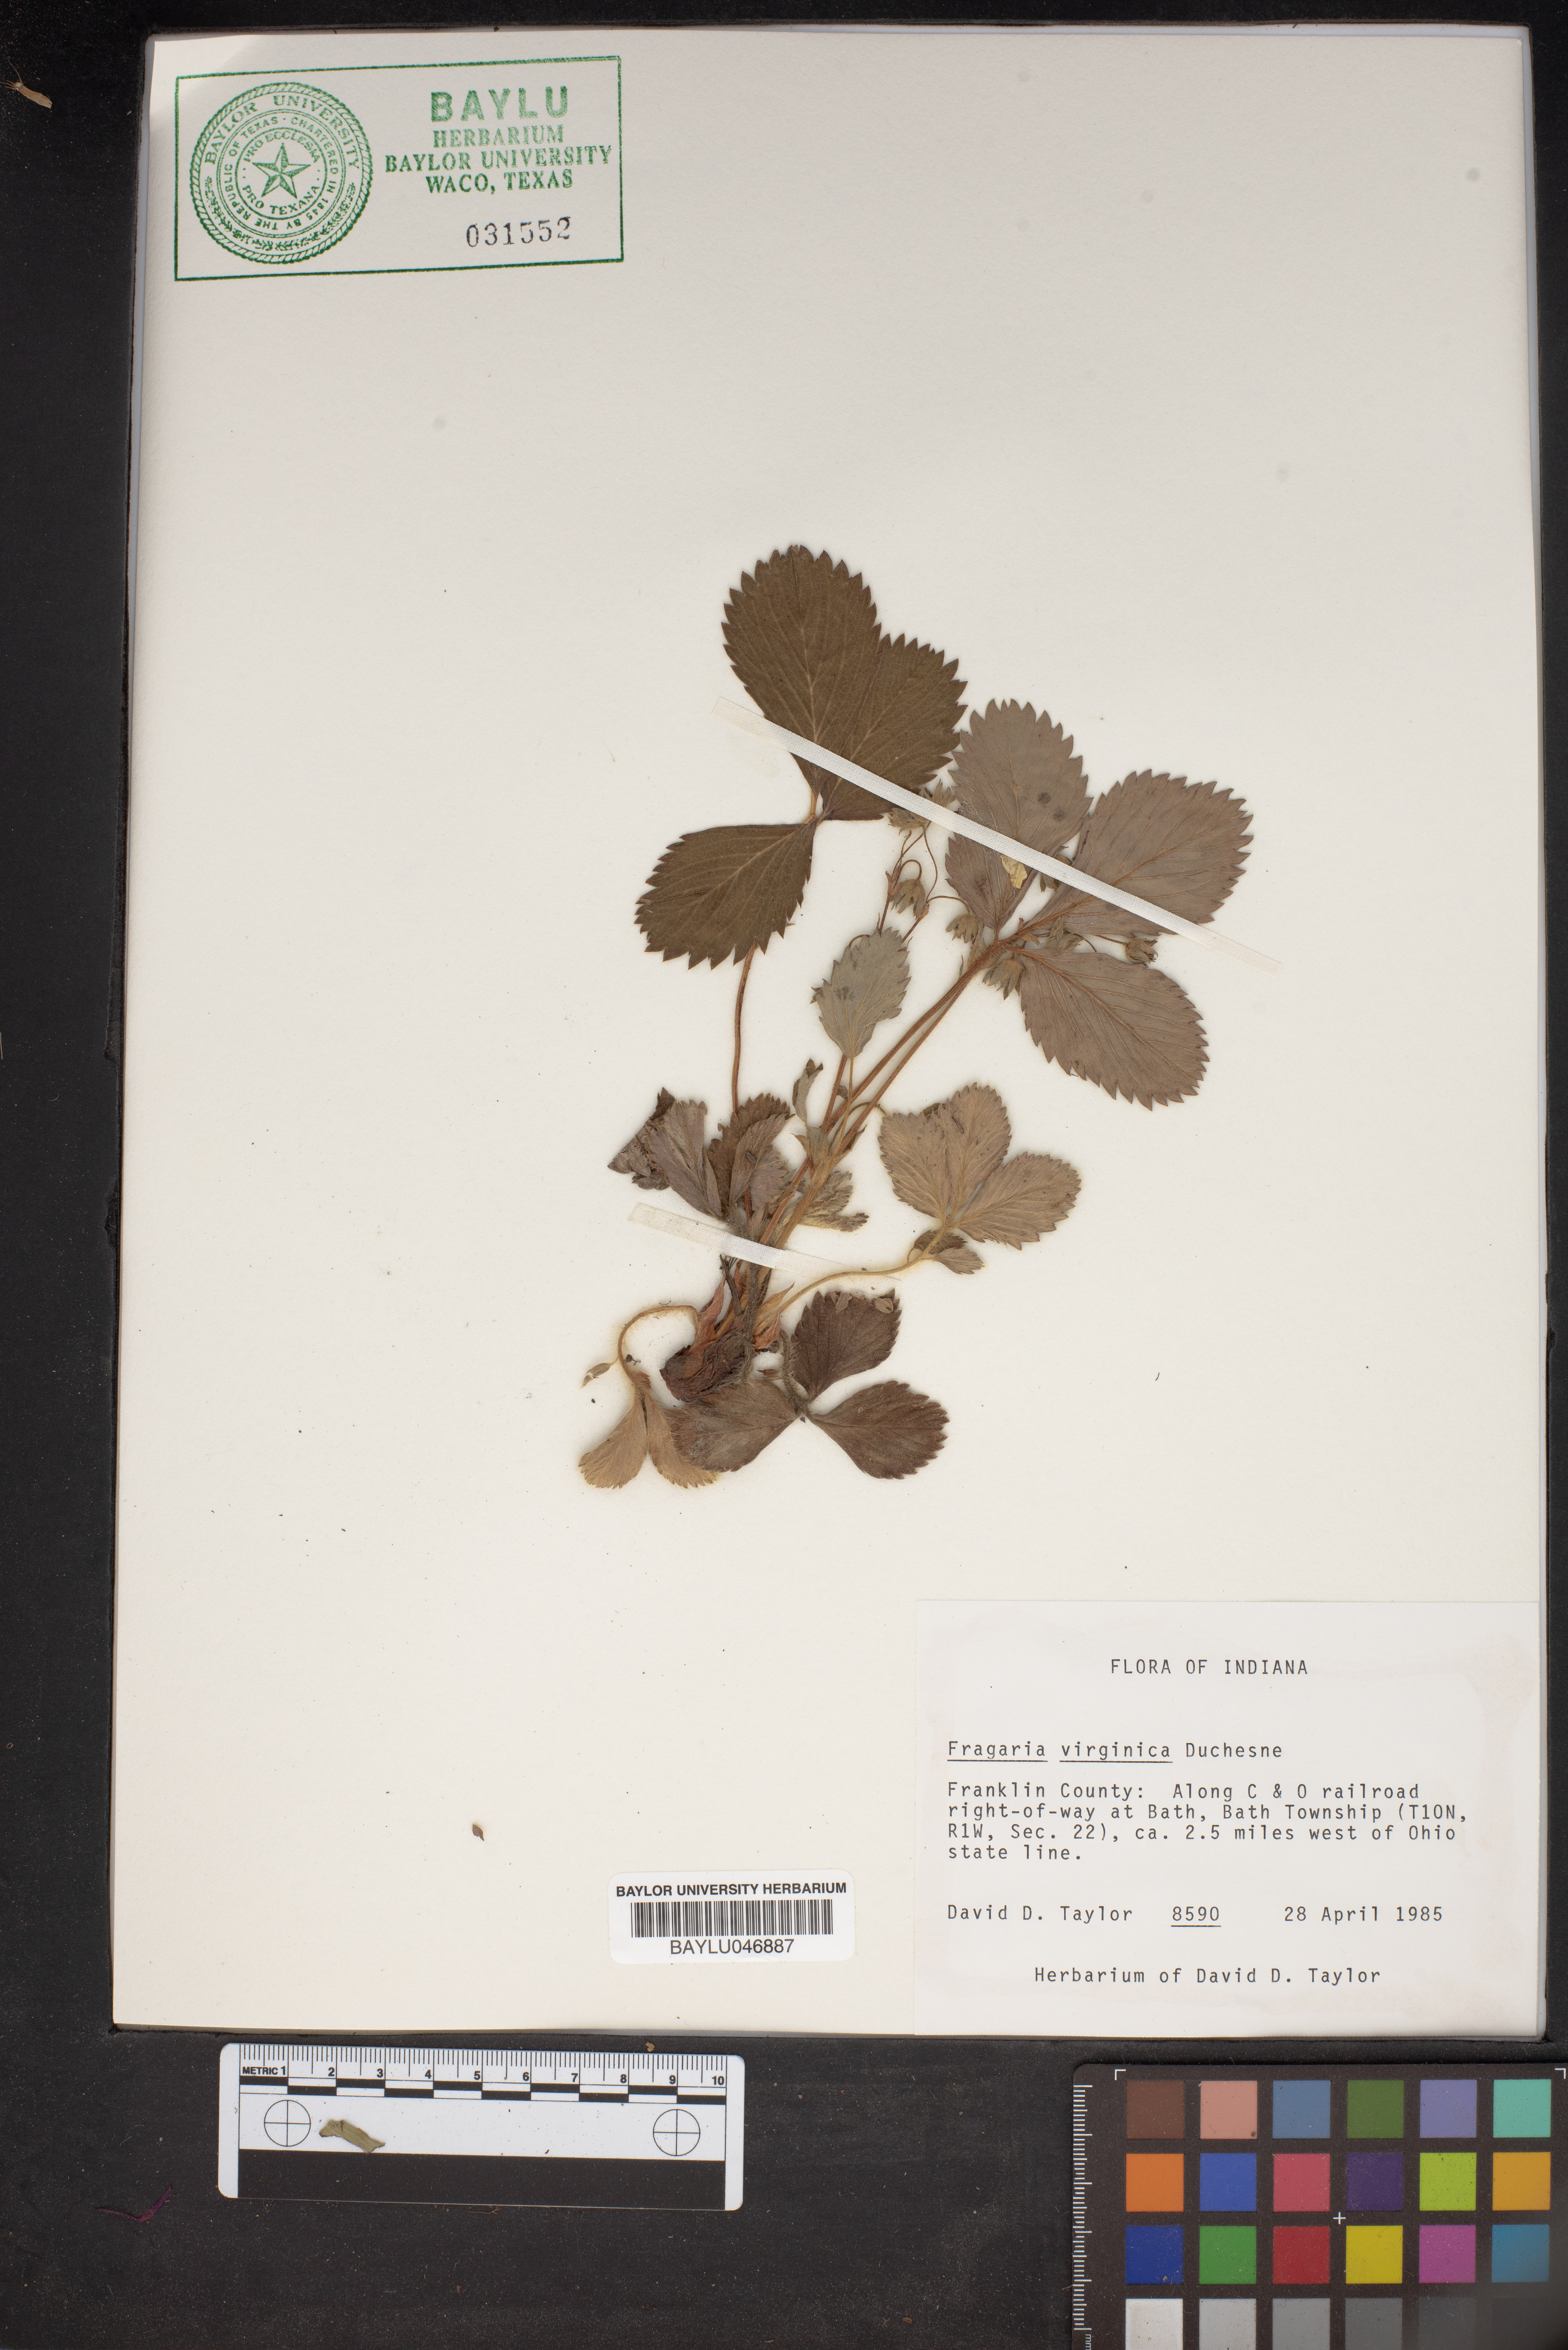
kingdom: Plantae
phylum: Tracheophyta
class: Magnoliopsida
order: Rosales
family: Rosaceae
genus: Fragaria
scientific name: Fragaria virginiana
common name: Thickleaved wild strawberry
